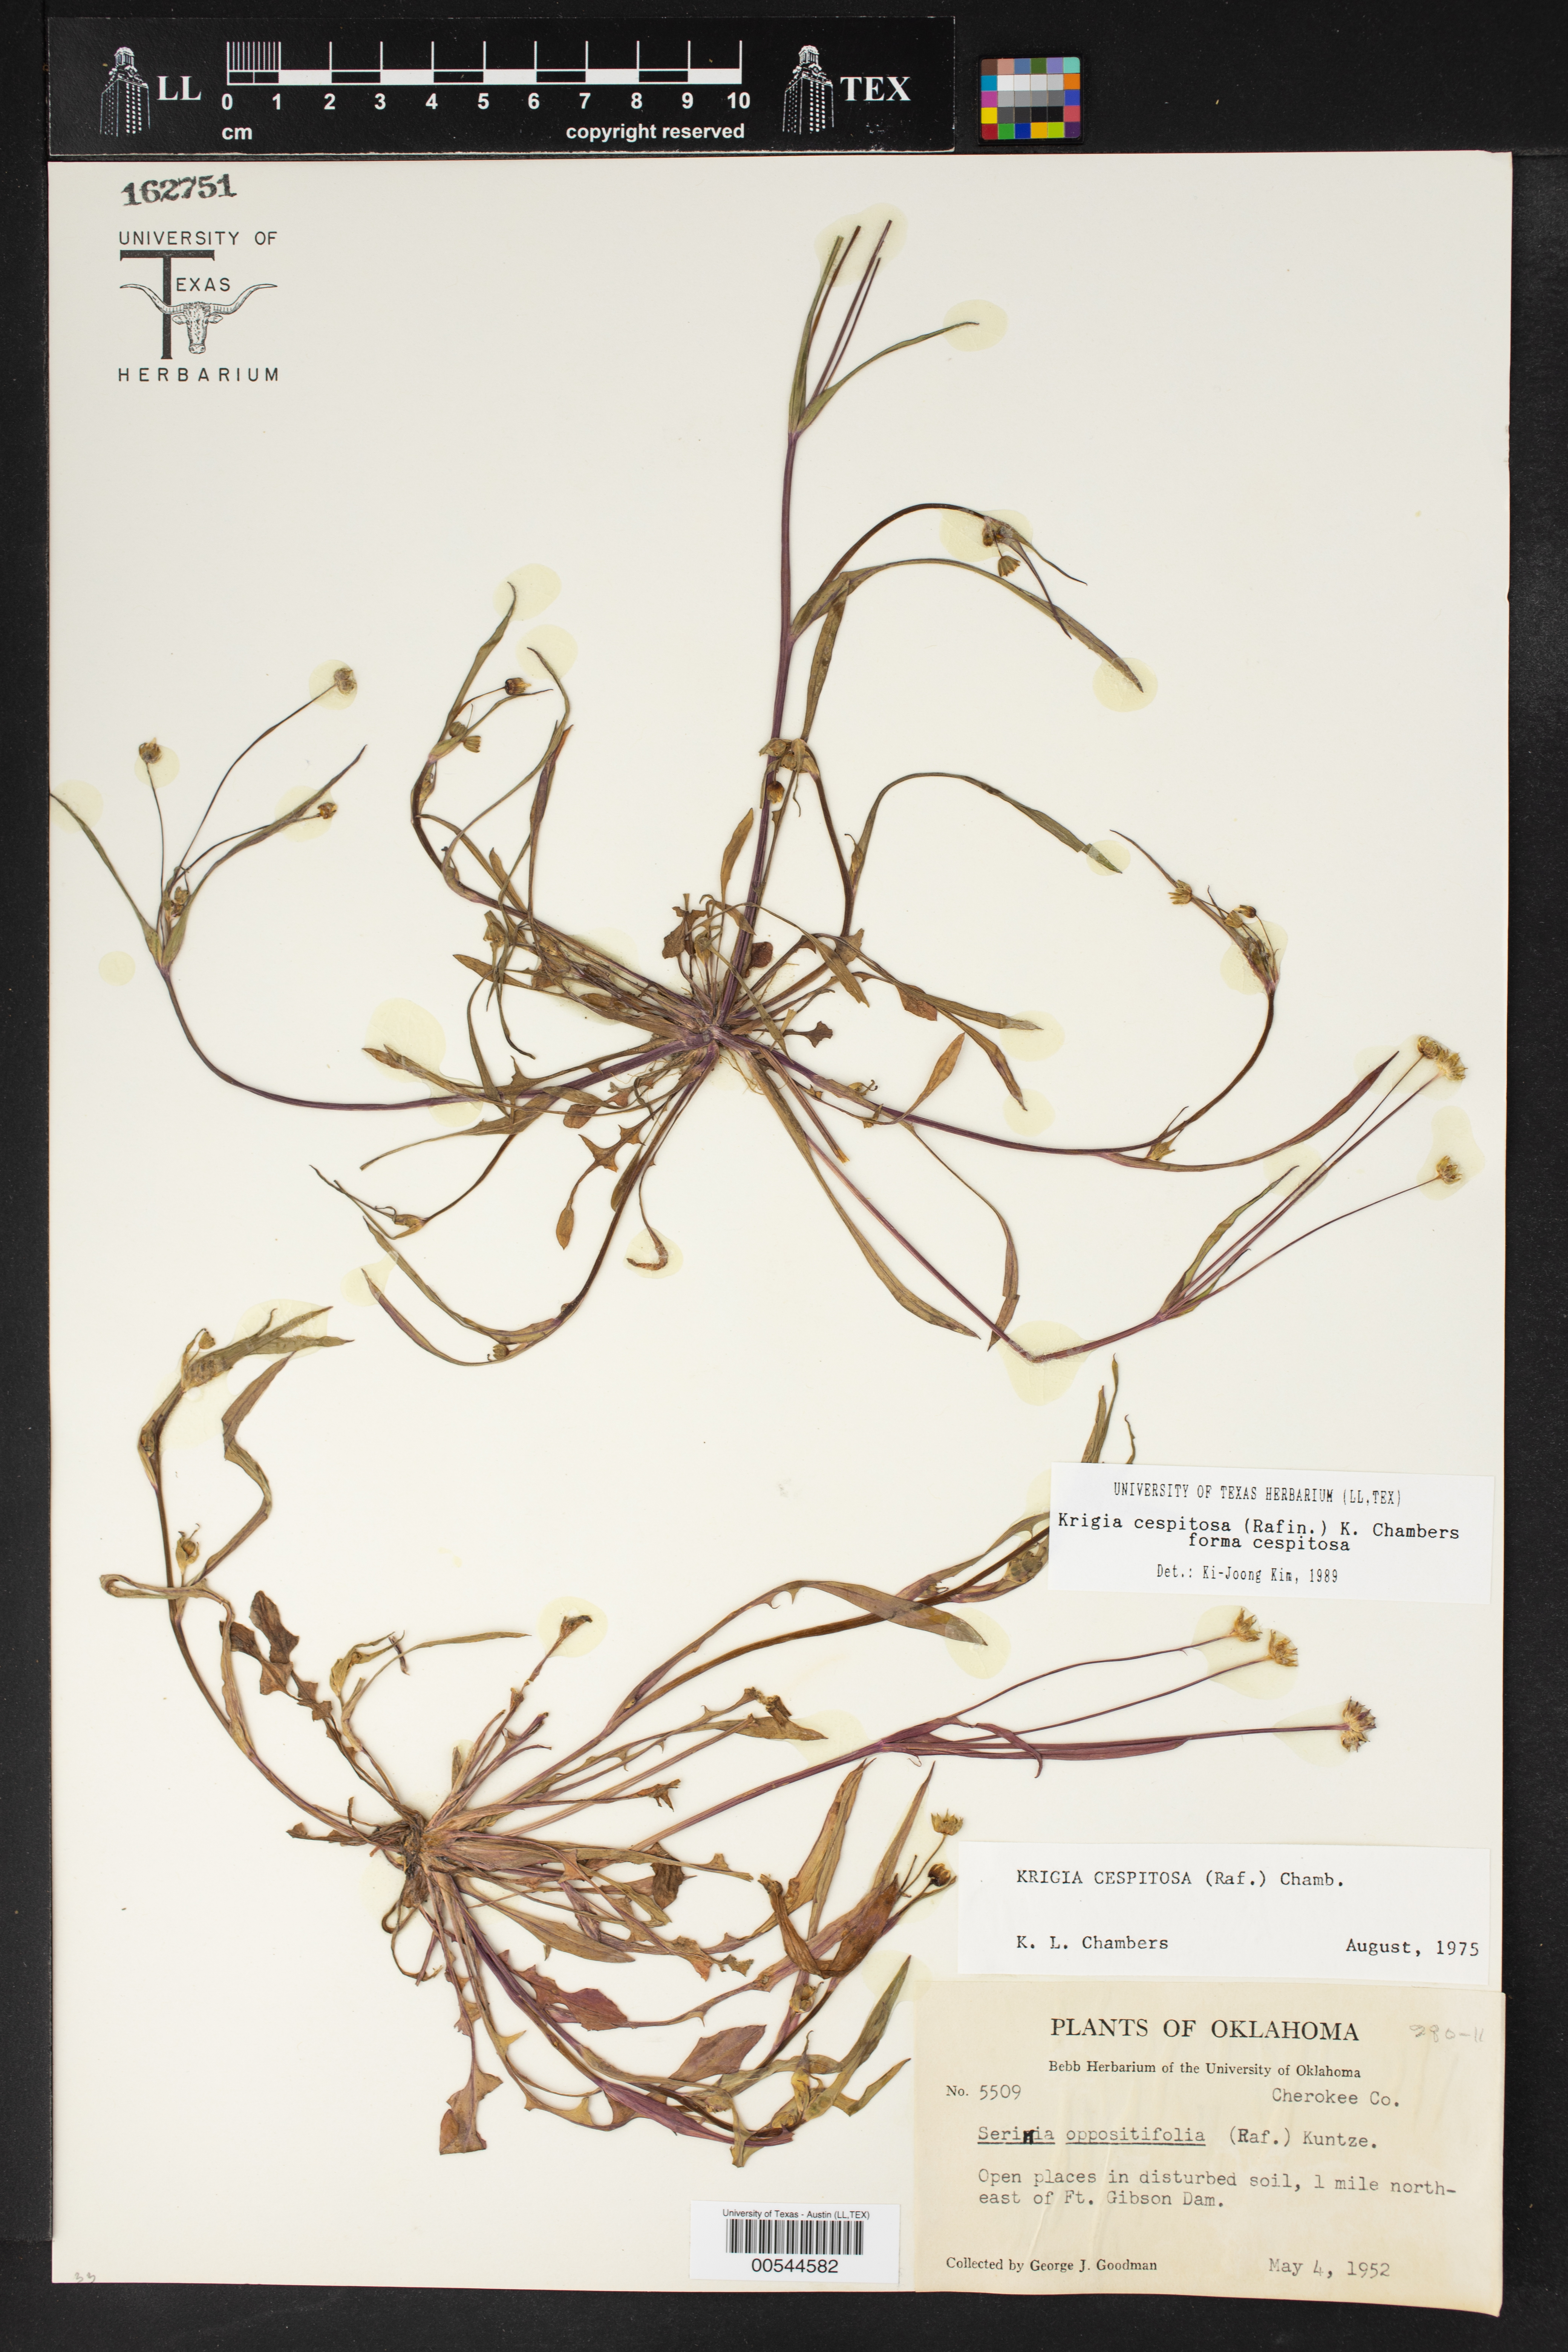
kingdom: Plantae
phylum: Tracheophyta
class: Magnoliopsida
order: Asterales
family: Asteraceae
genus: Krigia
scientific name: Krigia cespitosa
